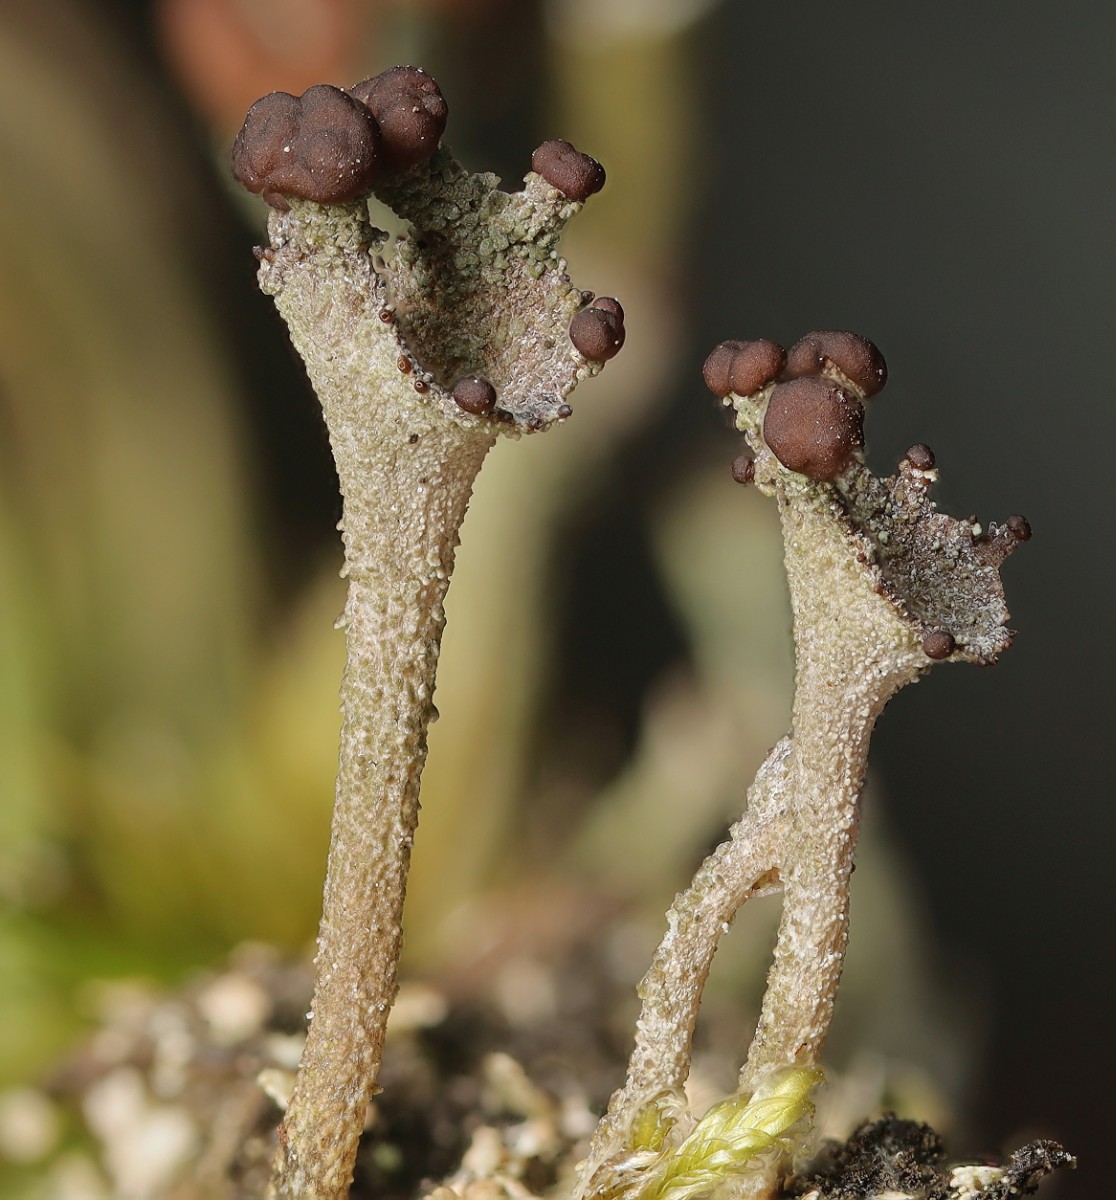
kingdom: Fungi
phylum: Ascomycota
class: Lecanoromycetes
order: Lecanorales
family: Cladoniaceae
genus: Cladonia
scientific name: Cladonia
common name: brungrøn bægerlav
